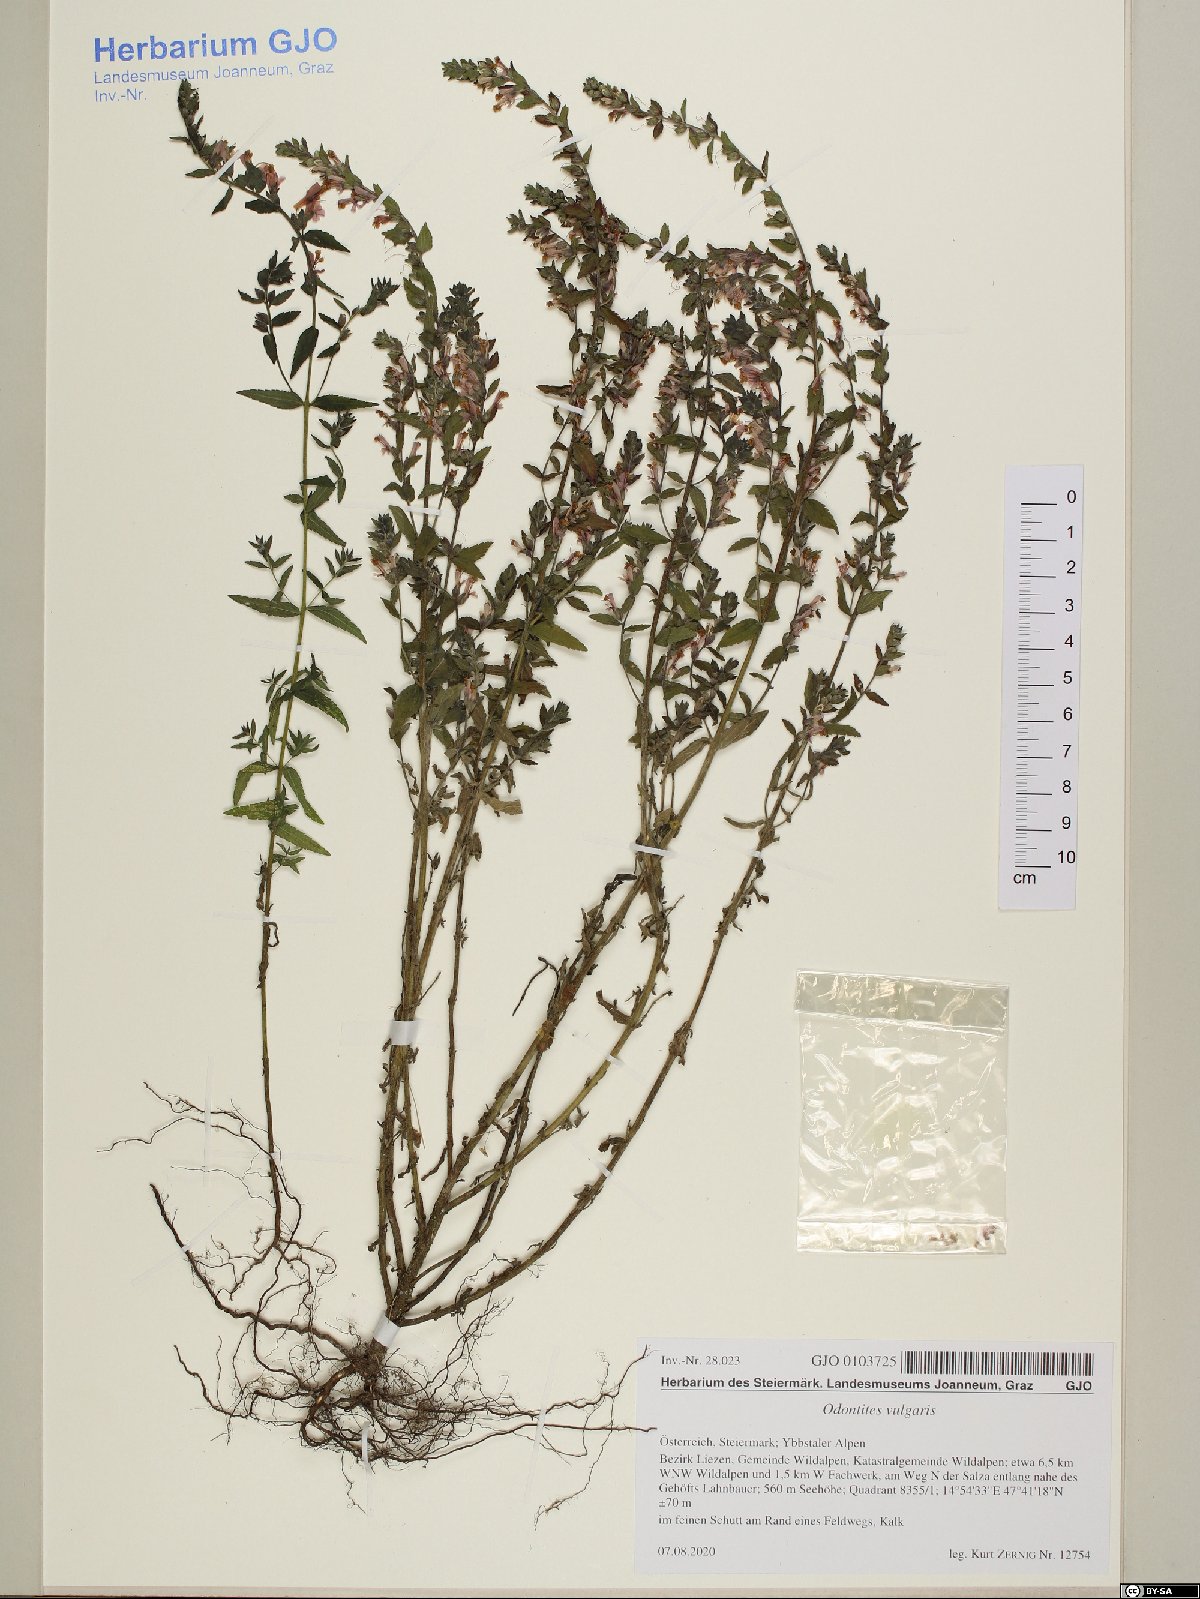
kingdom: Plantae
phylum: Tracheophyta
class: Magnoliopsida
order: Lamiales
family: Orobanchaceae
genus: Odontites
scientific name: Odontites vulgaris
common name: Broomrape
